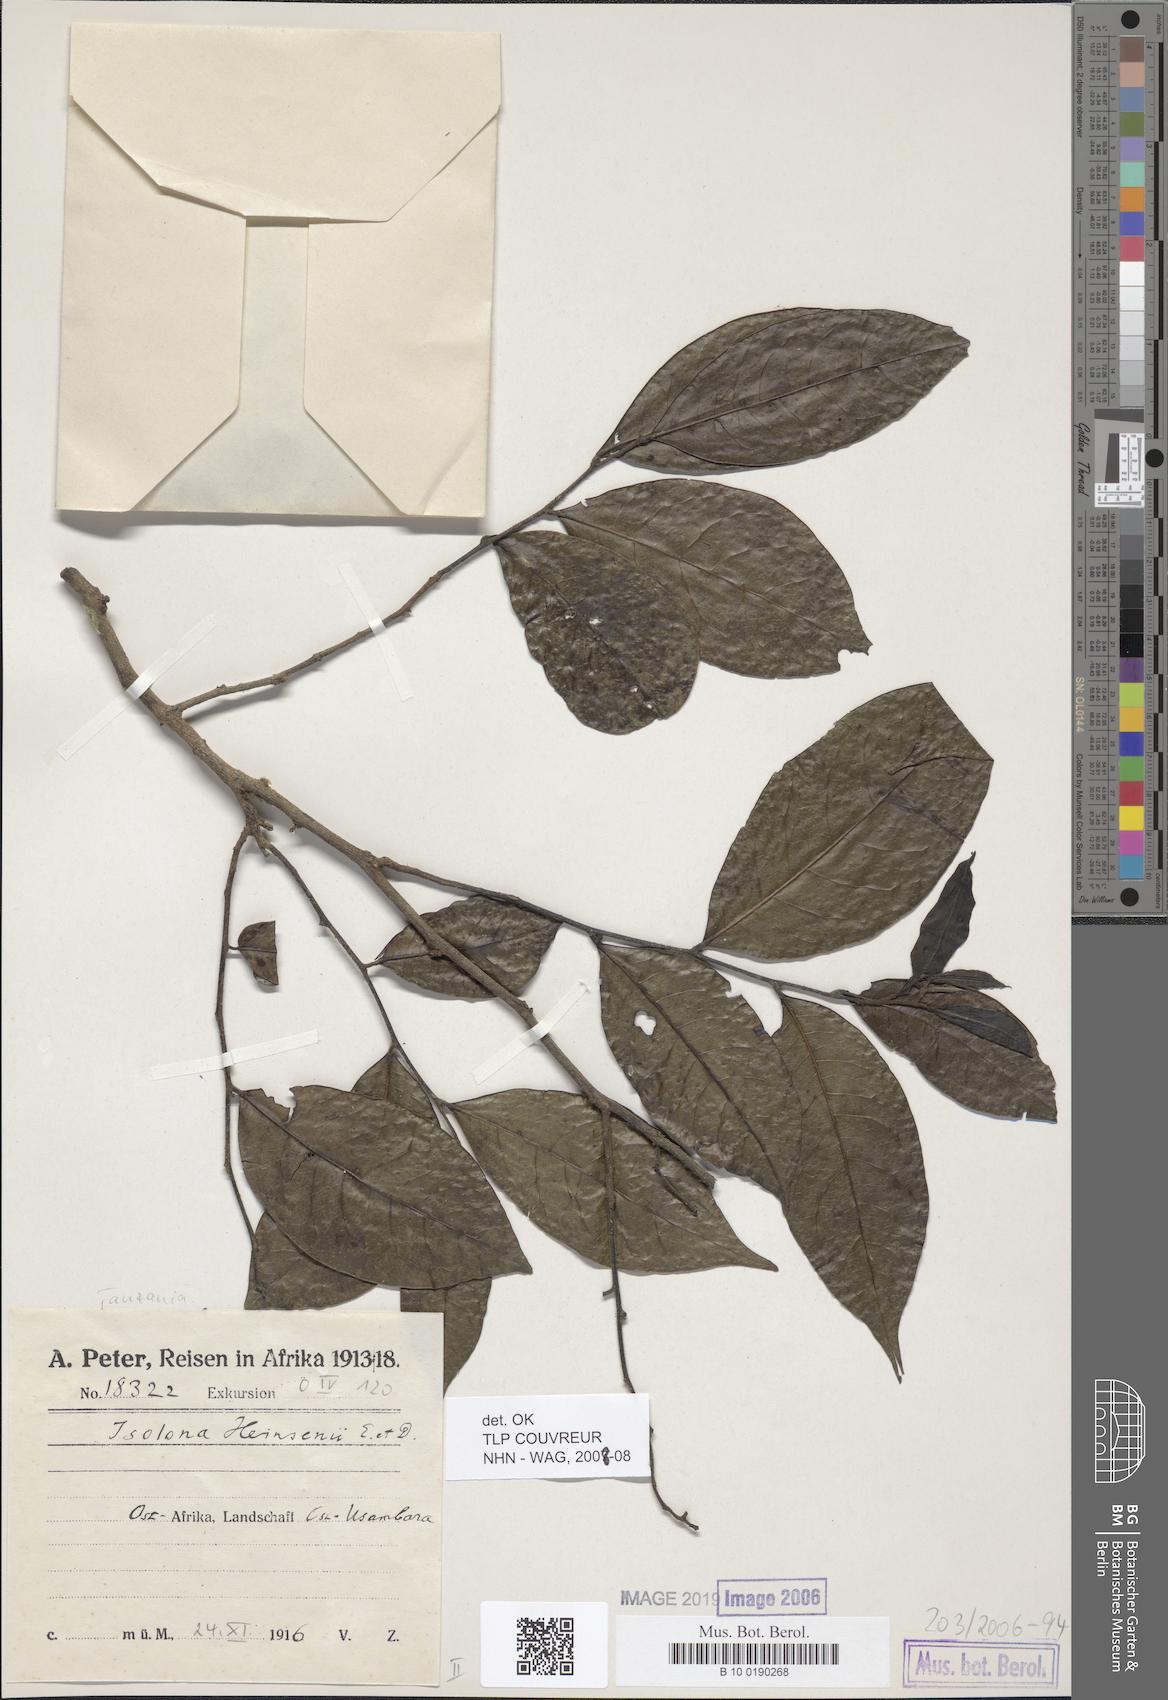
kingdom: Plantae
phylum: Tracheophyta
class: Magnoliopsida
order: Magnoliales
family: Annonaceae
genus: Isolona
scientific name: Isolona heinsenii
